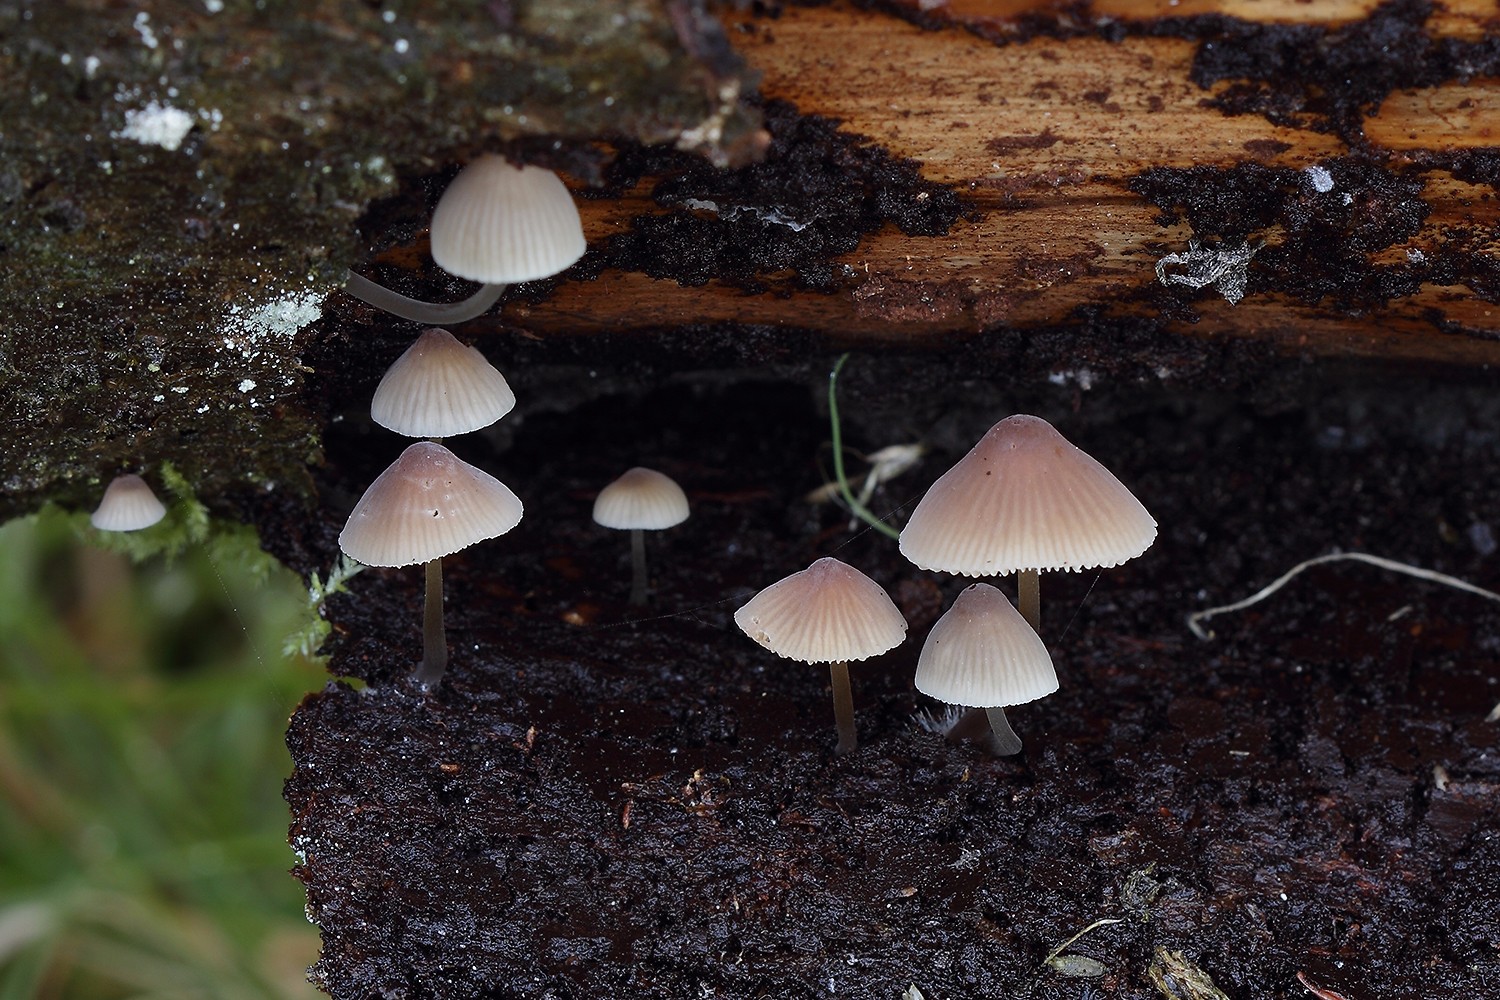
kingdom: Fungi
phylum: Basidiomycota
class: Agaricomycetes
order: Agaricales
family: Mycenaceae
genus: Mycena
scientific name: Mycena metata
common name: rødlig huesvamp
